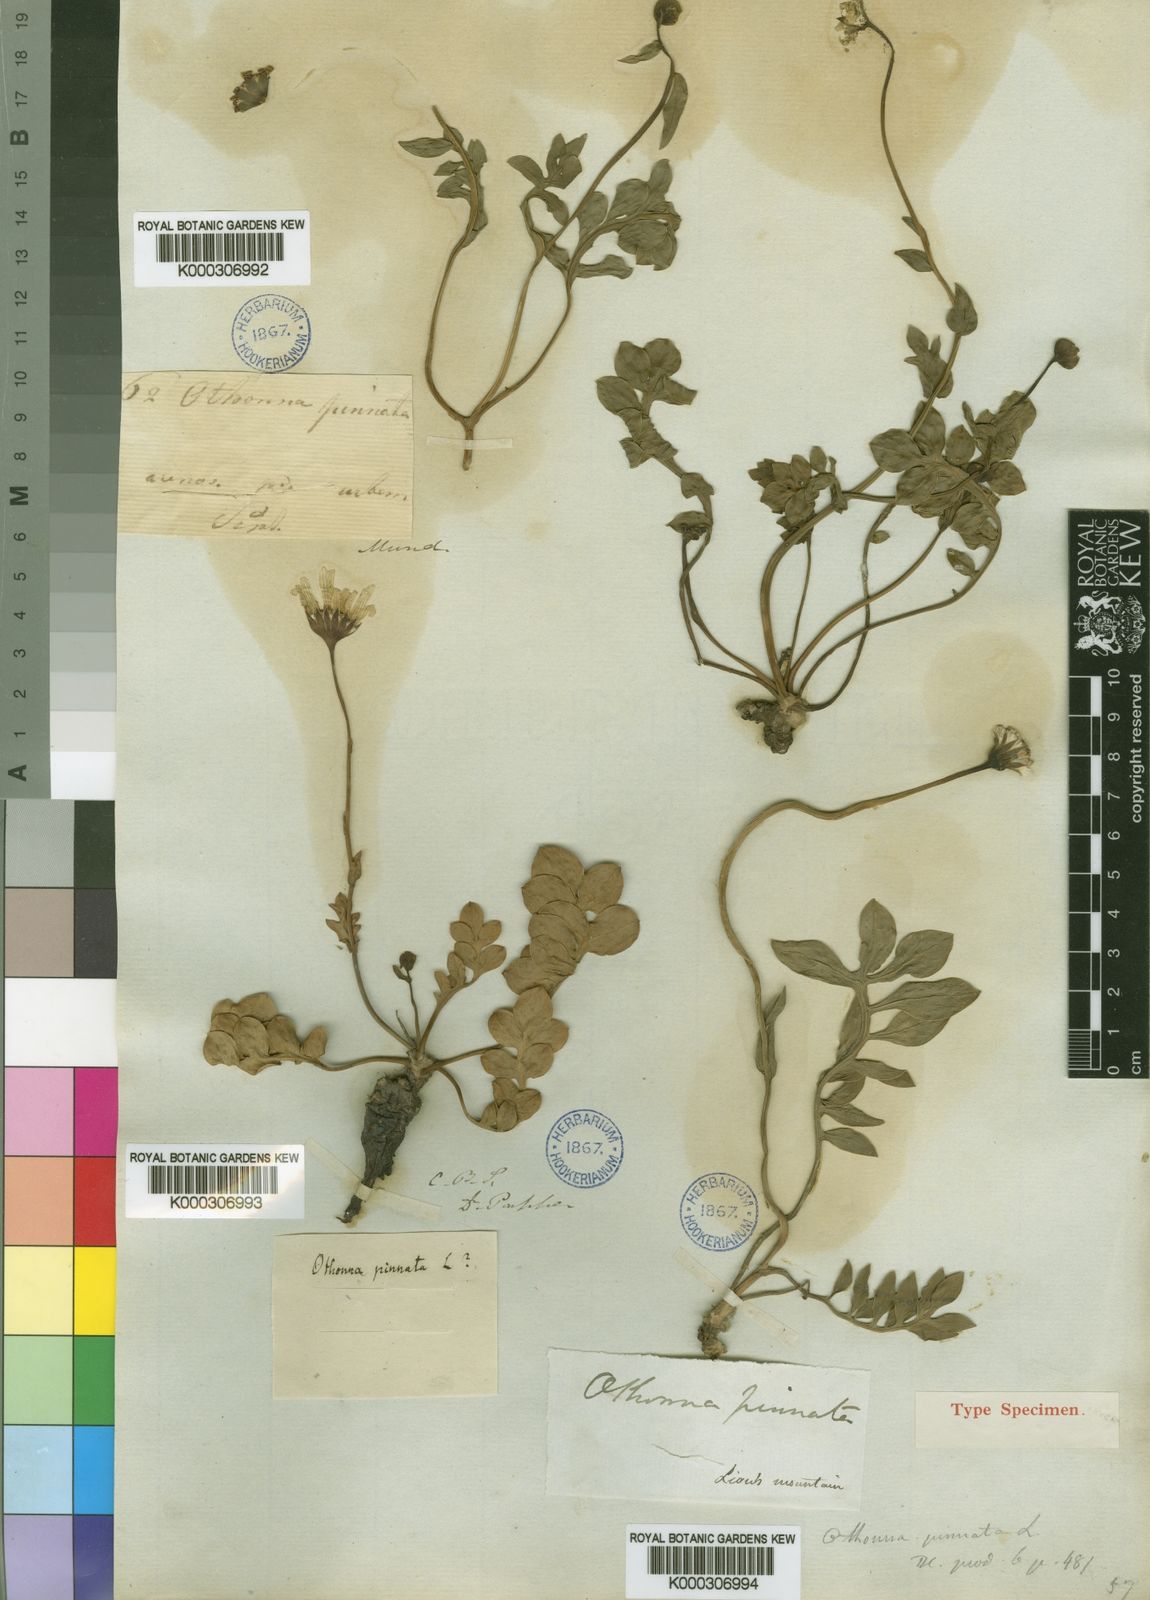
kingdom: Plantae
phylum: Tracheophyta
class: Magnoliopsida
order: Asterales
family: Asteraceae
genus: Othonna
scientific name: Othonna pinnata
